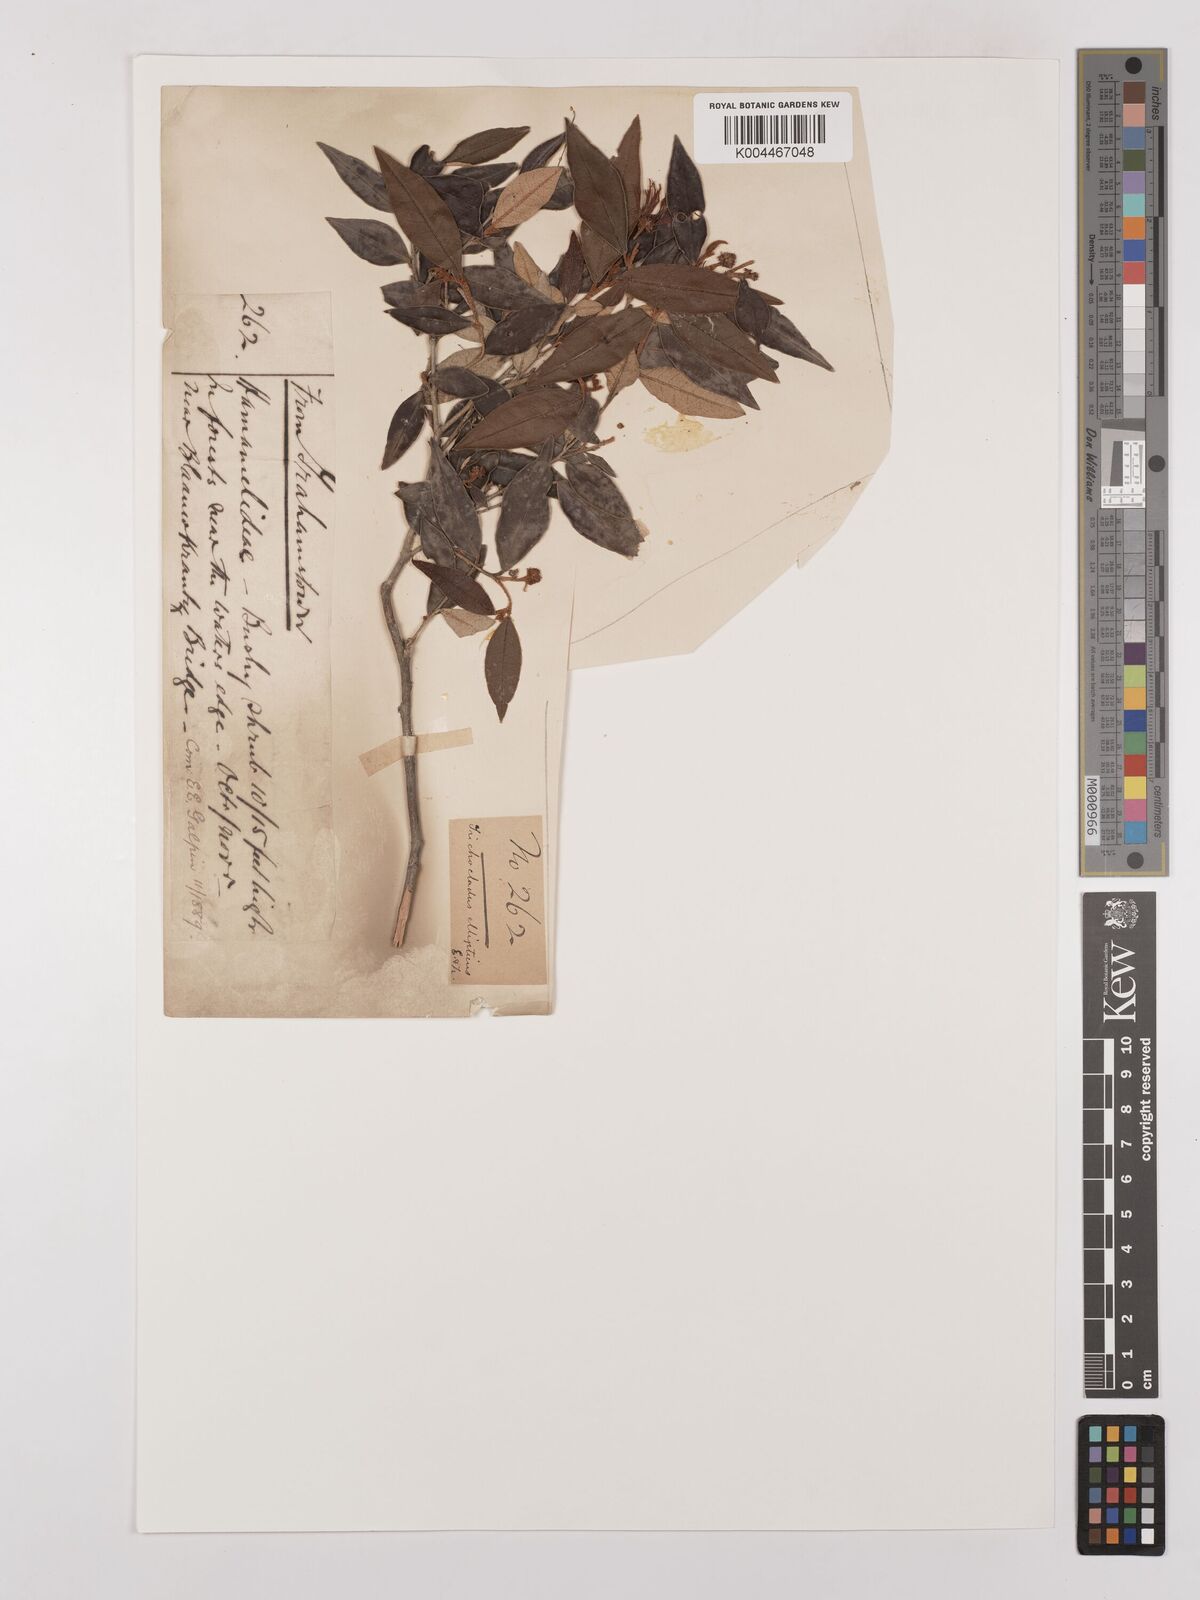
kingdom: Plantae
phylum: Tracheophyta
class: Magnoliopsida
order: Saxifragales
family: Hamamelidaceae
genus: Trichocladus
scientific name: Trichocladus ellipticus
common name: White witch-hazel
